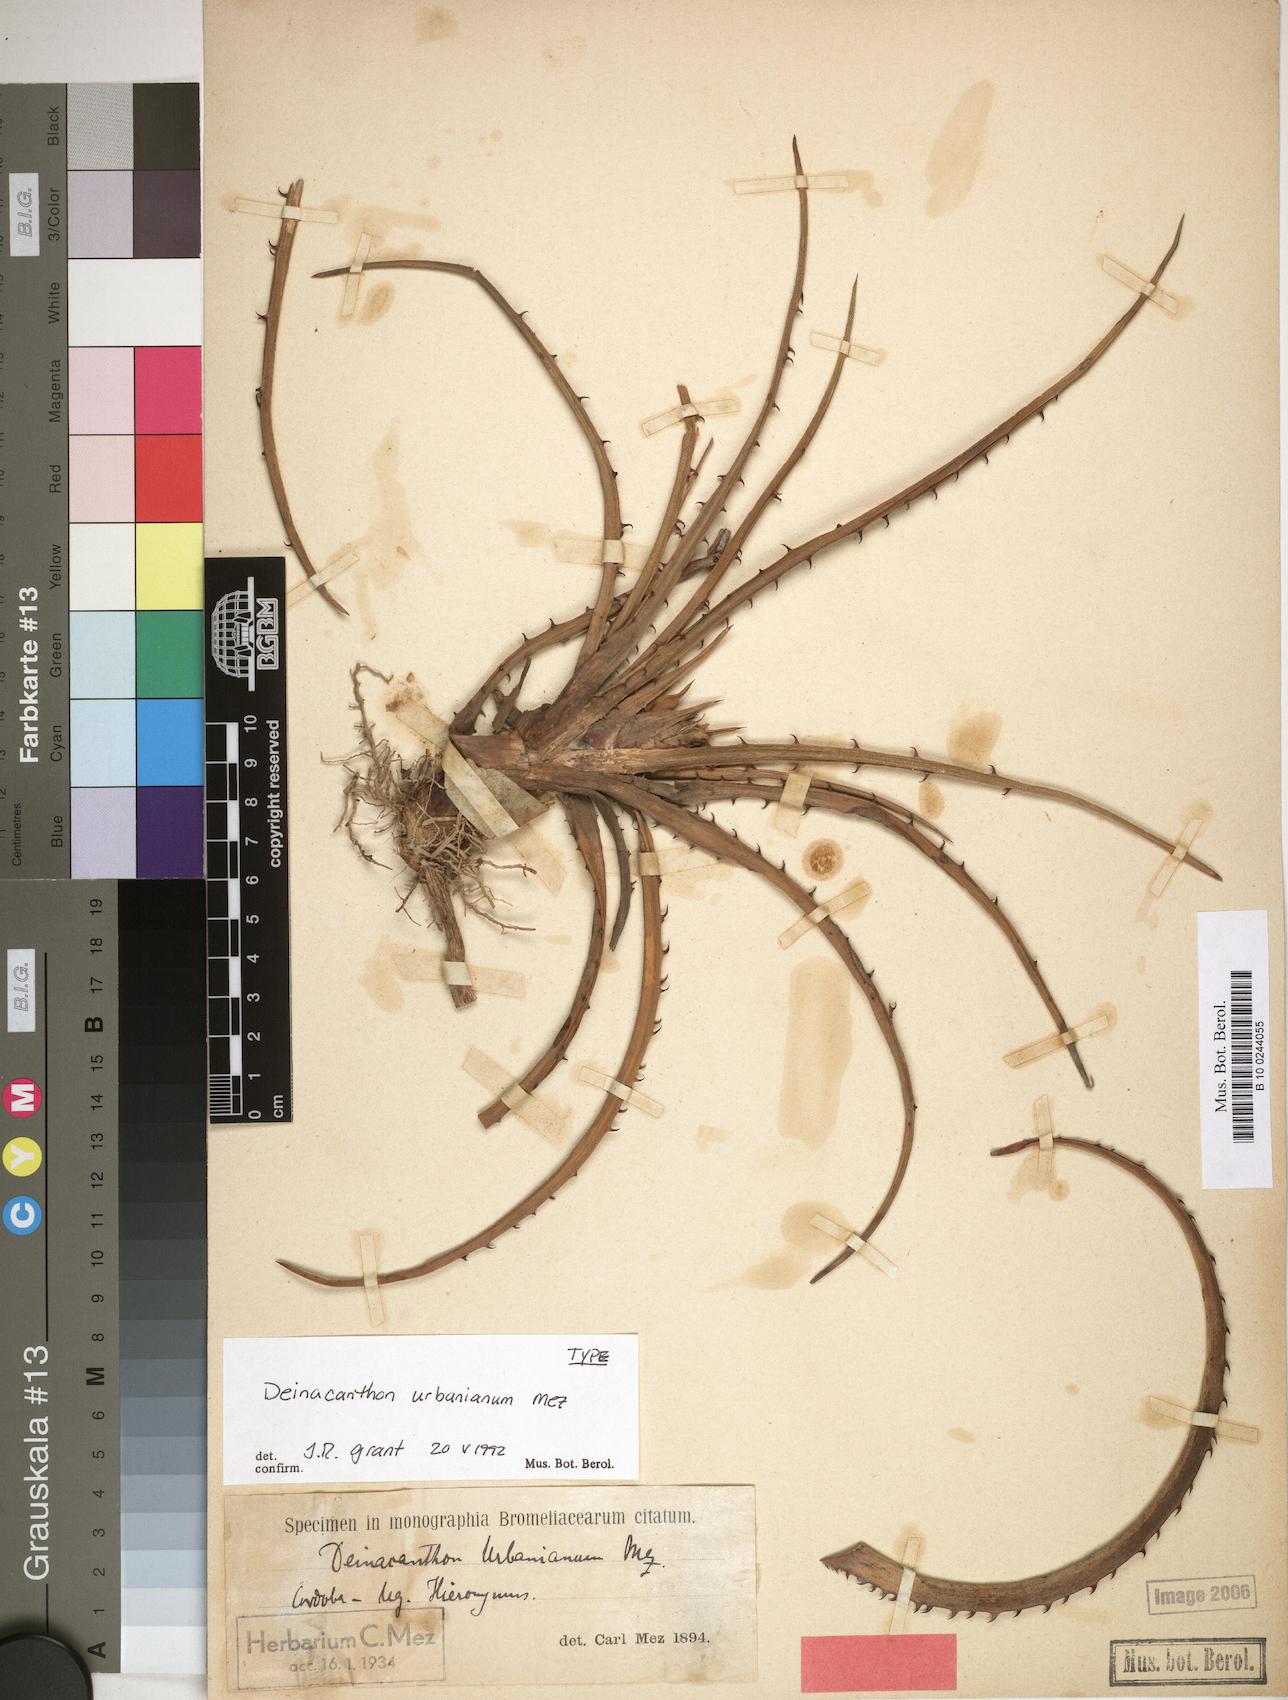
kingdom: Plantae
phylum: Tracheophyta
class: Liliopsida
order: Poales
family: Bromeliaceae
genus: Deinacanthon
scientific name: Deinacanthon urbanianum
